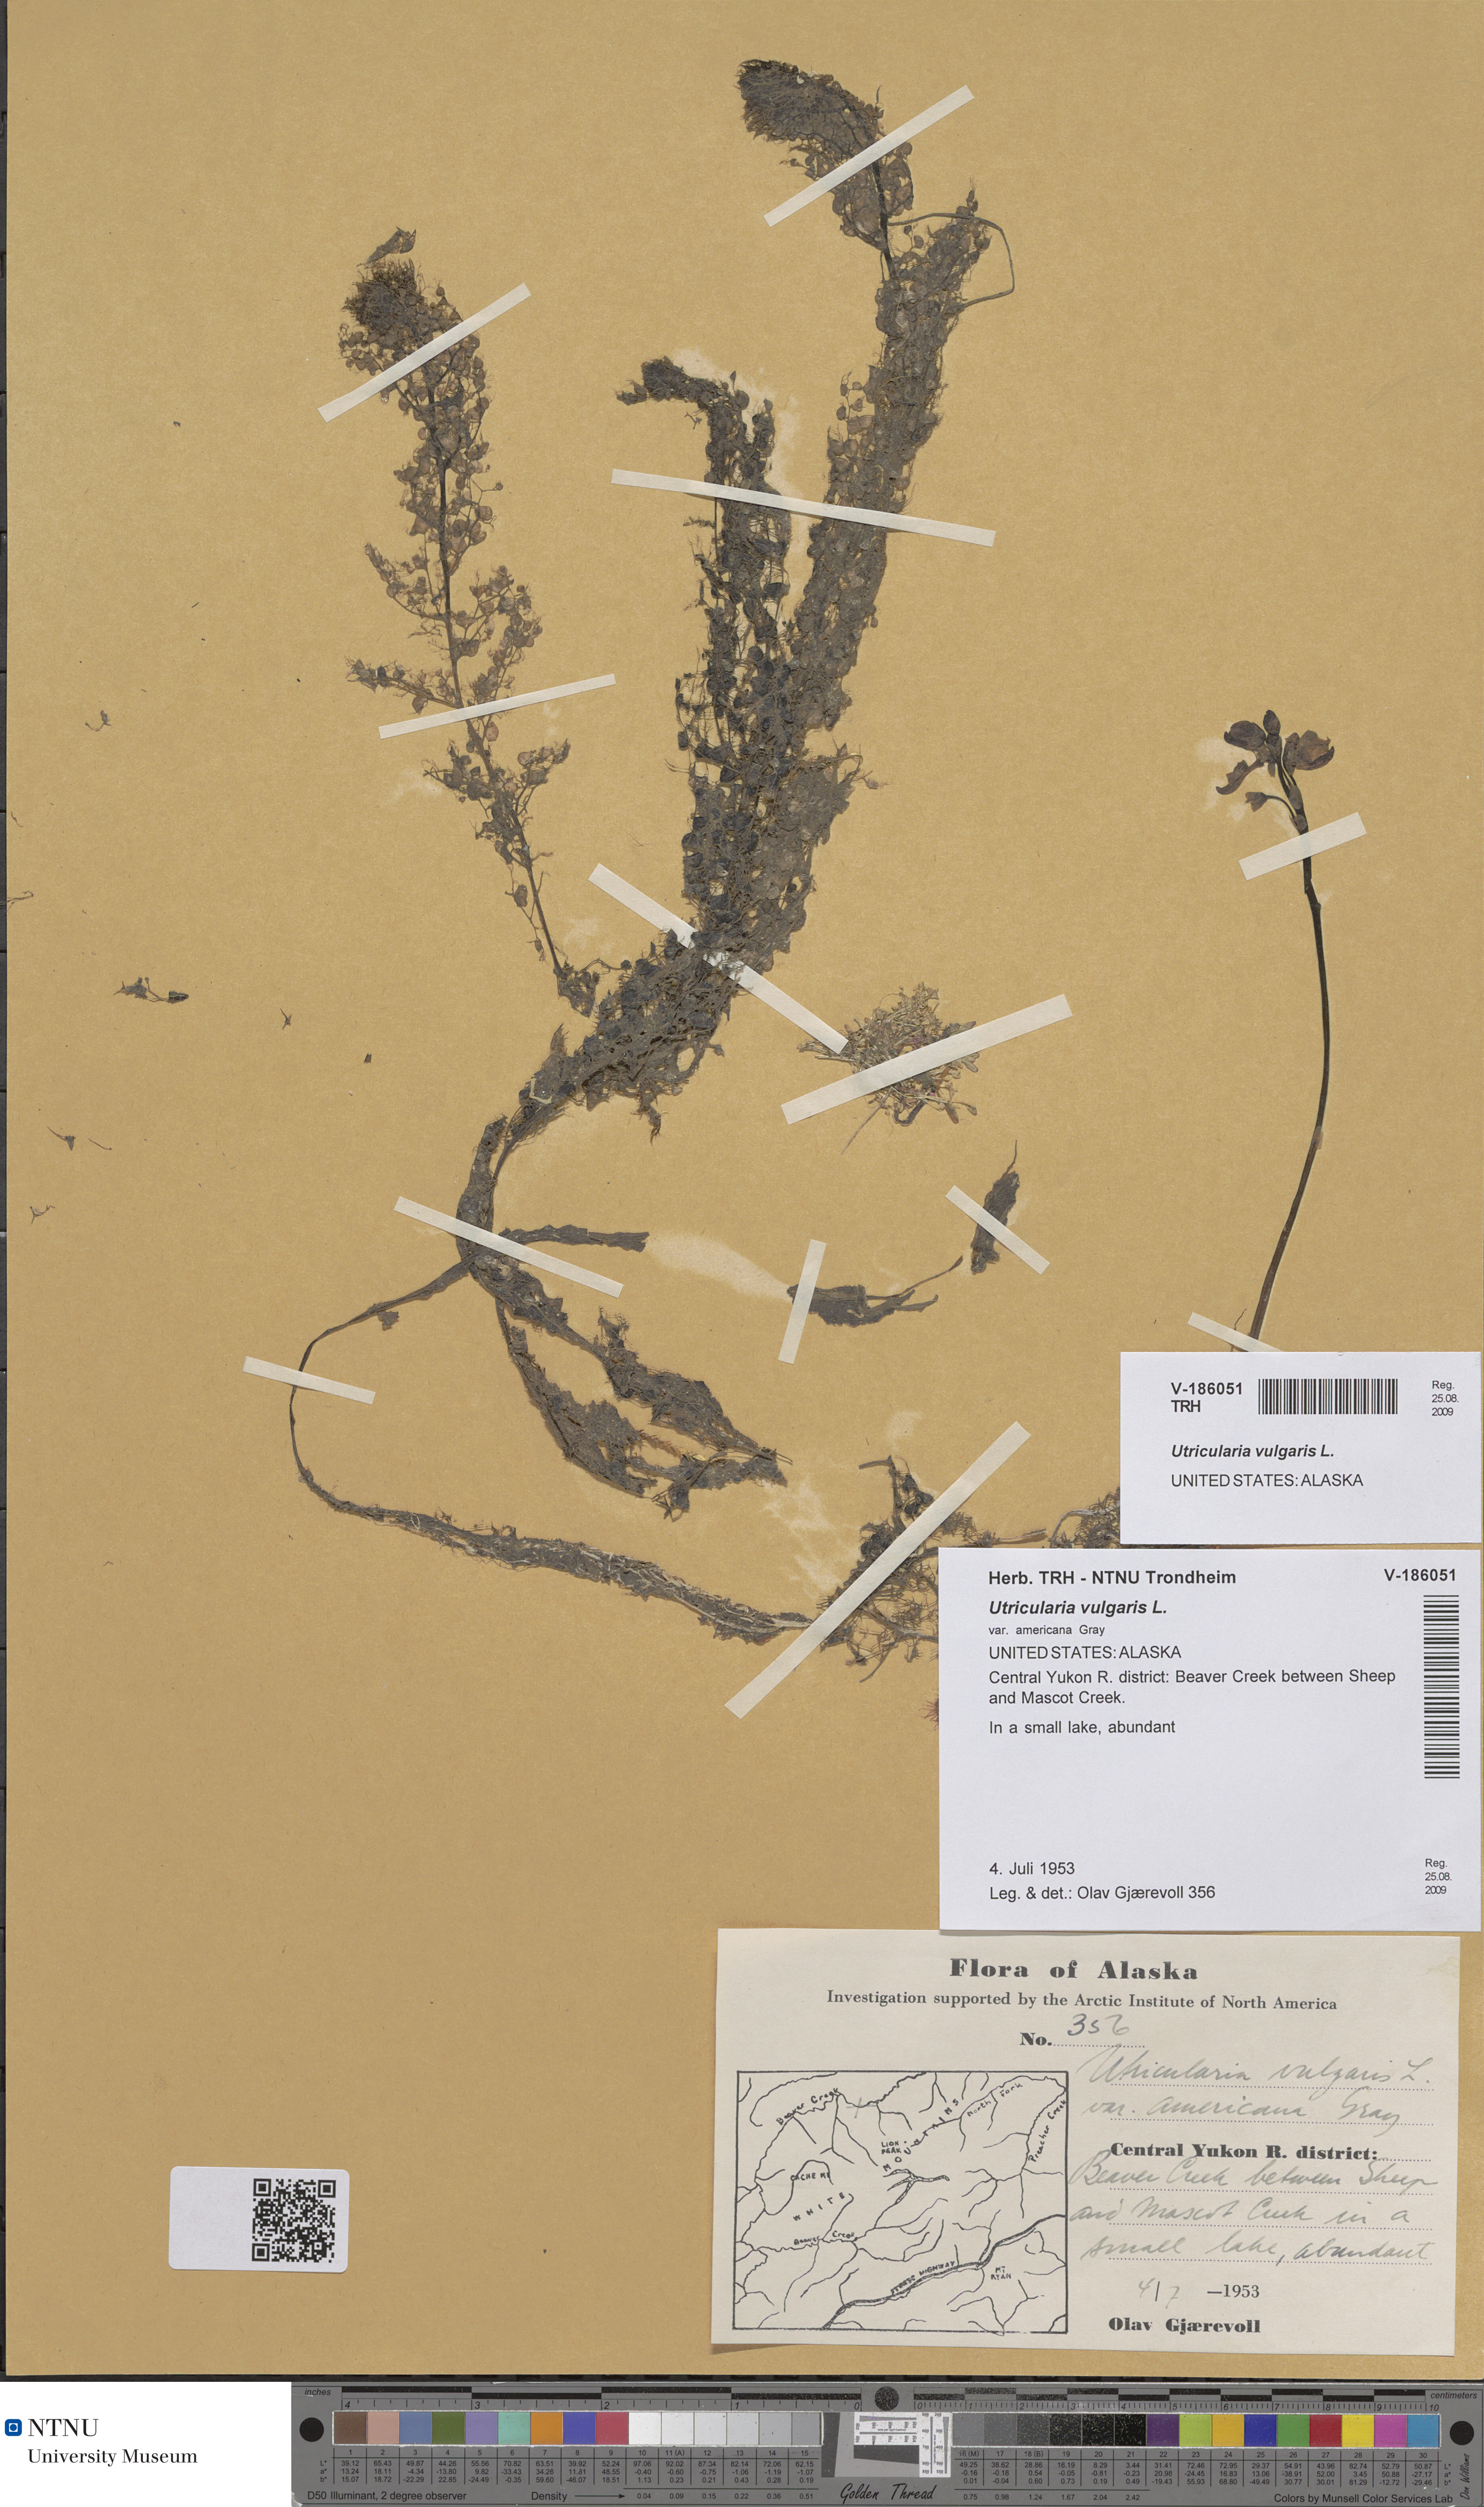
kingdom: Plantae
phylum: Tracheophyta
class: Magnoliopsida
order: Lamiales
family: Lentibulariaceae
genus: Utricularia
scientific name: Utricularia vulgaris
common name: Greater bladderwort
